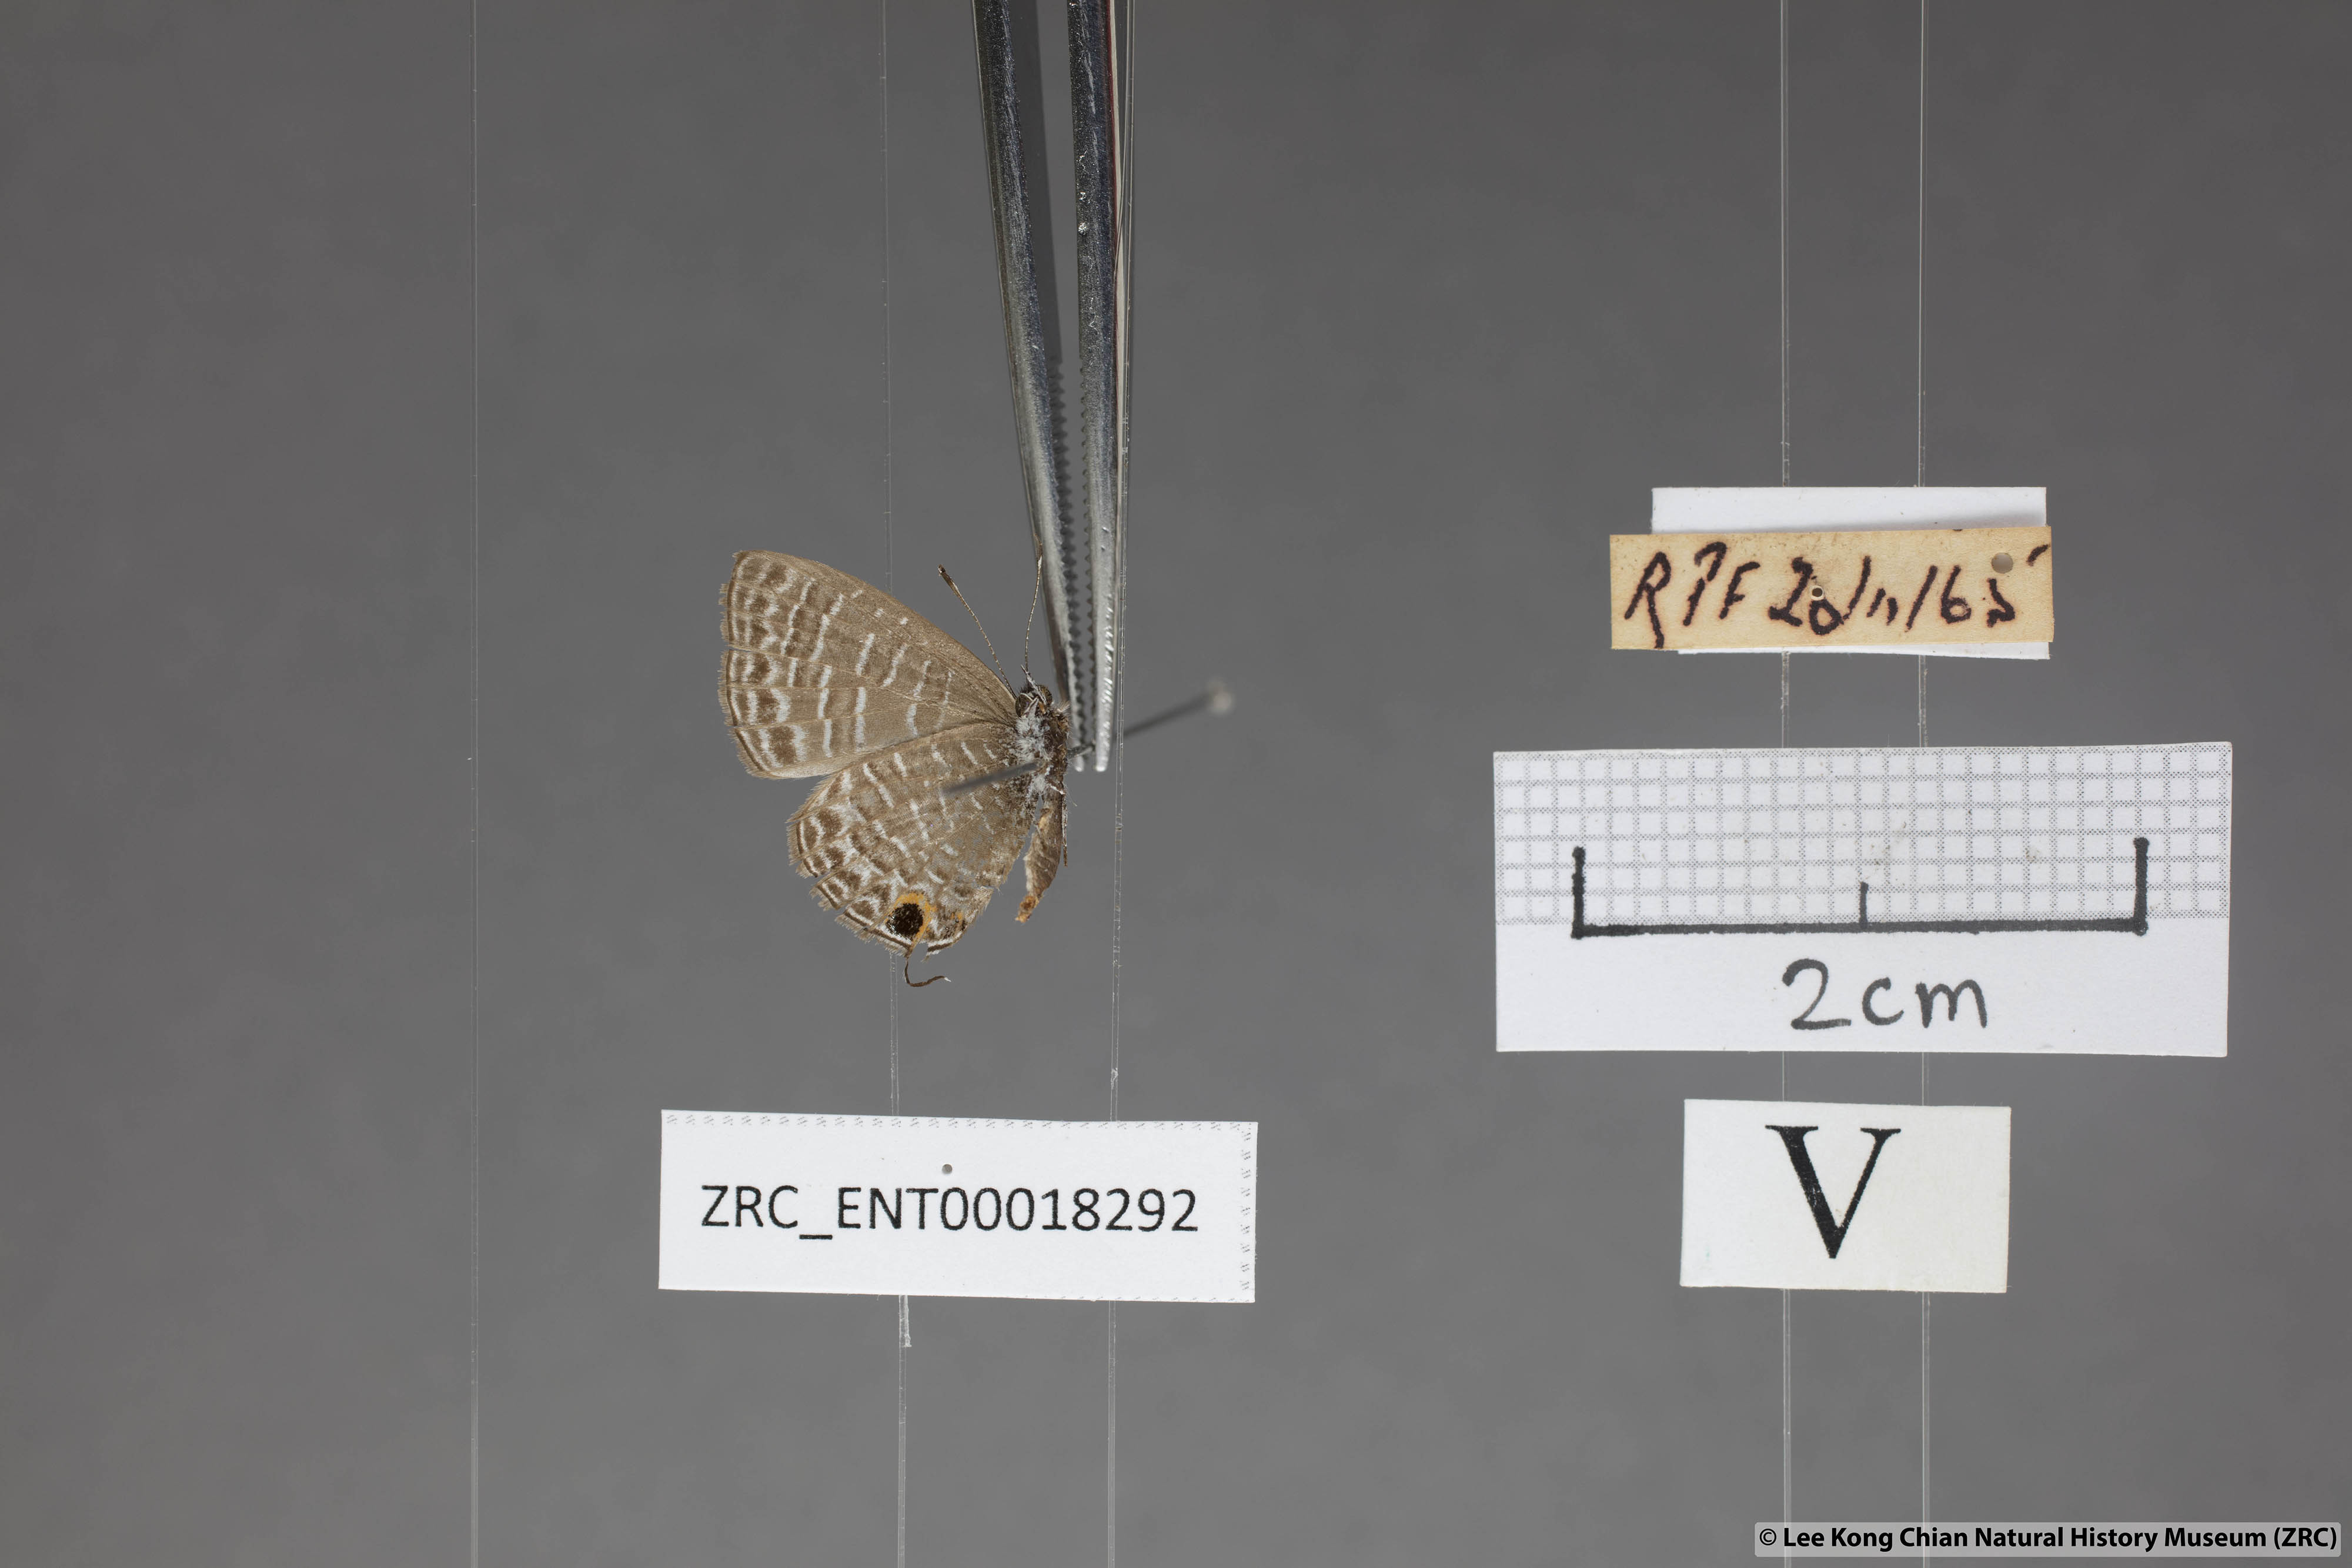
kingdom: Animalia
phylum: Arthropoda
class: Insecta
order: Lepidoptera
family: Lycaenidae
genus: Prosotas
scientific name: Prosotas aluta
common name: Barred lineblue
